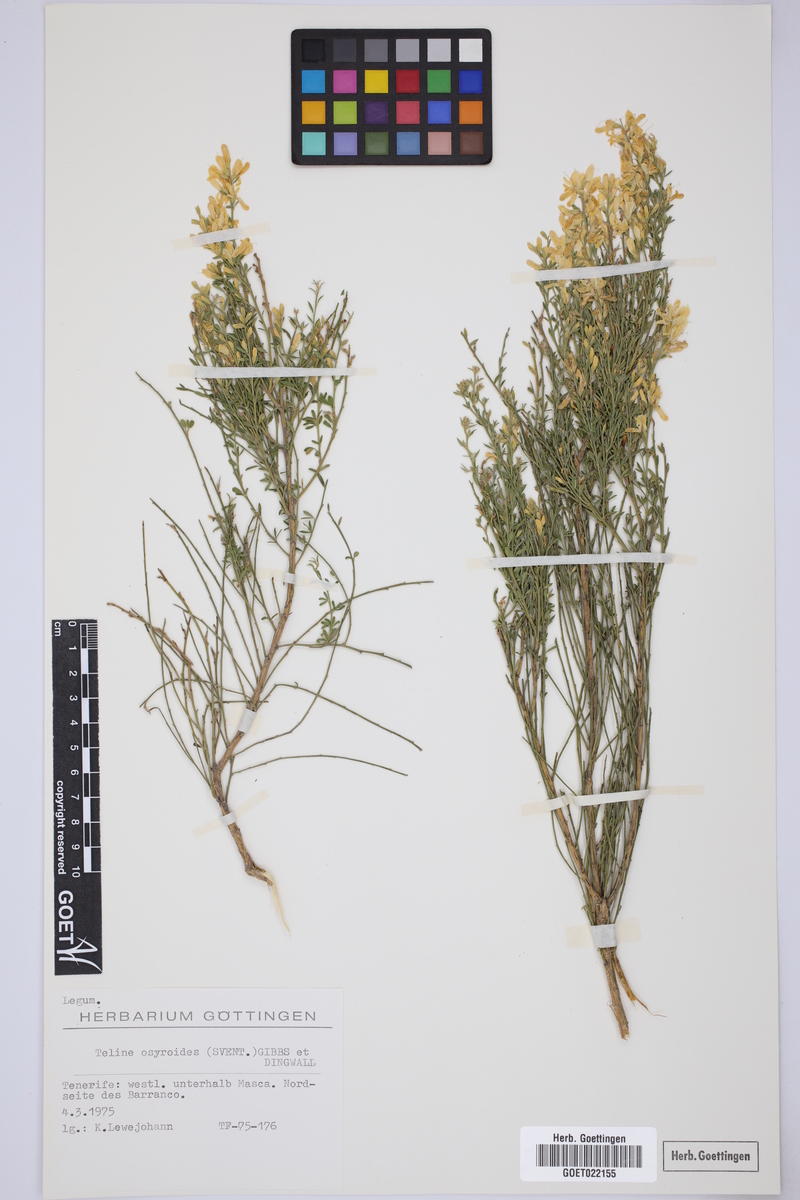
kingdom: Plantae
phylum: Tracheophyta
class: Magnoliopsida
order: Fabales
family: Fabaceae
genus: Cytisus
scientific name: Cytisus osyroides
